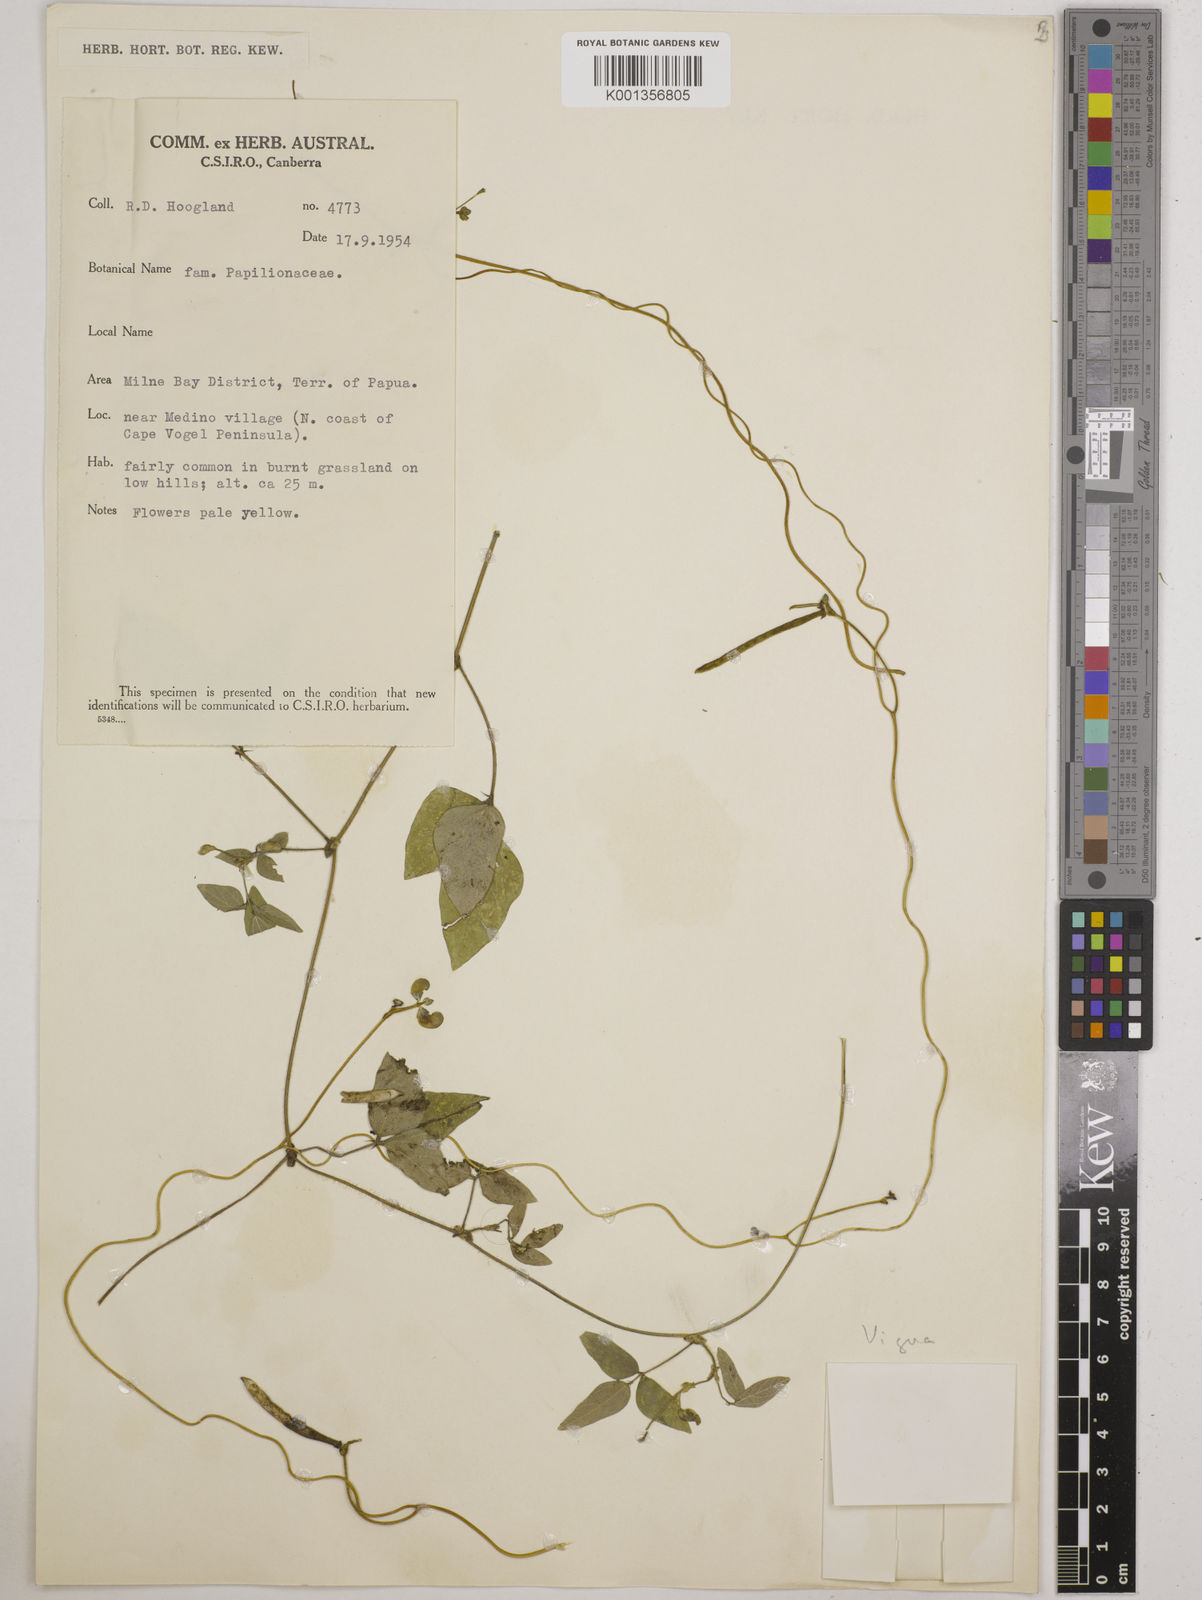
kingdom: Plantae
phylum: Tracheophyta
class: Magnoliopsida
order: Fabales
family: Fabaceae
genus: Vigna
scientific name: Vigna
